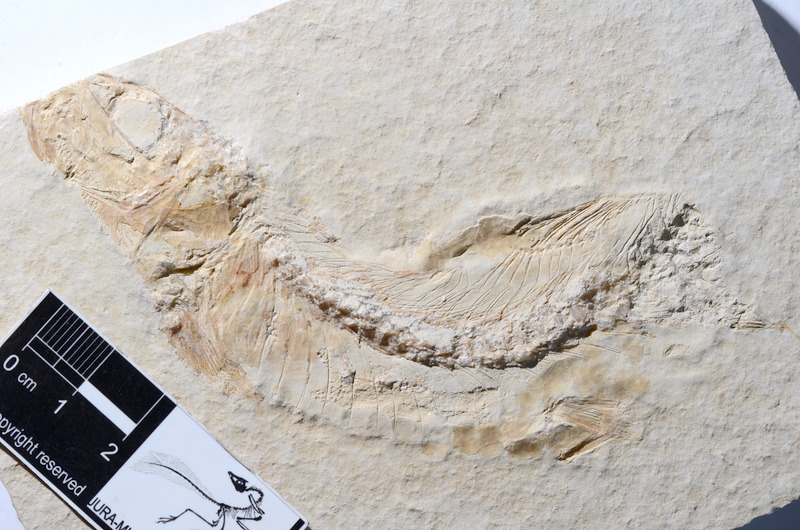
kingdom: Animalia
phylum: Chordata
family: Ascalaboidae
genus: Tharsis
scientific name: Tharsis dubius
